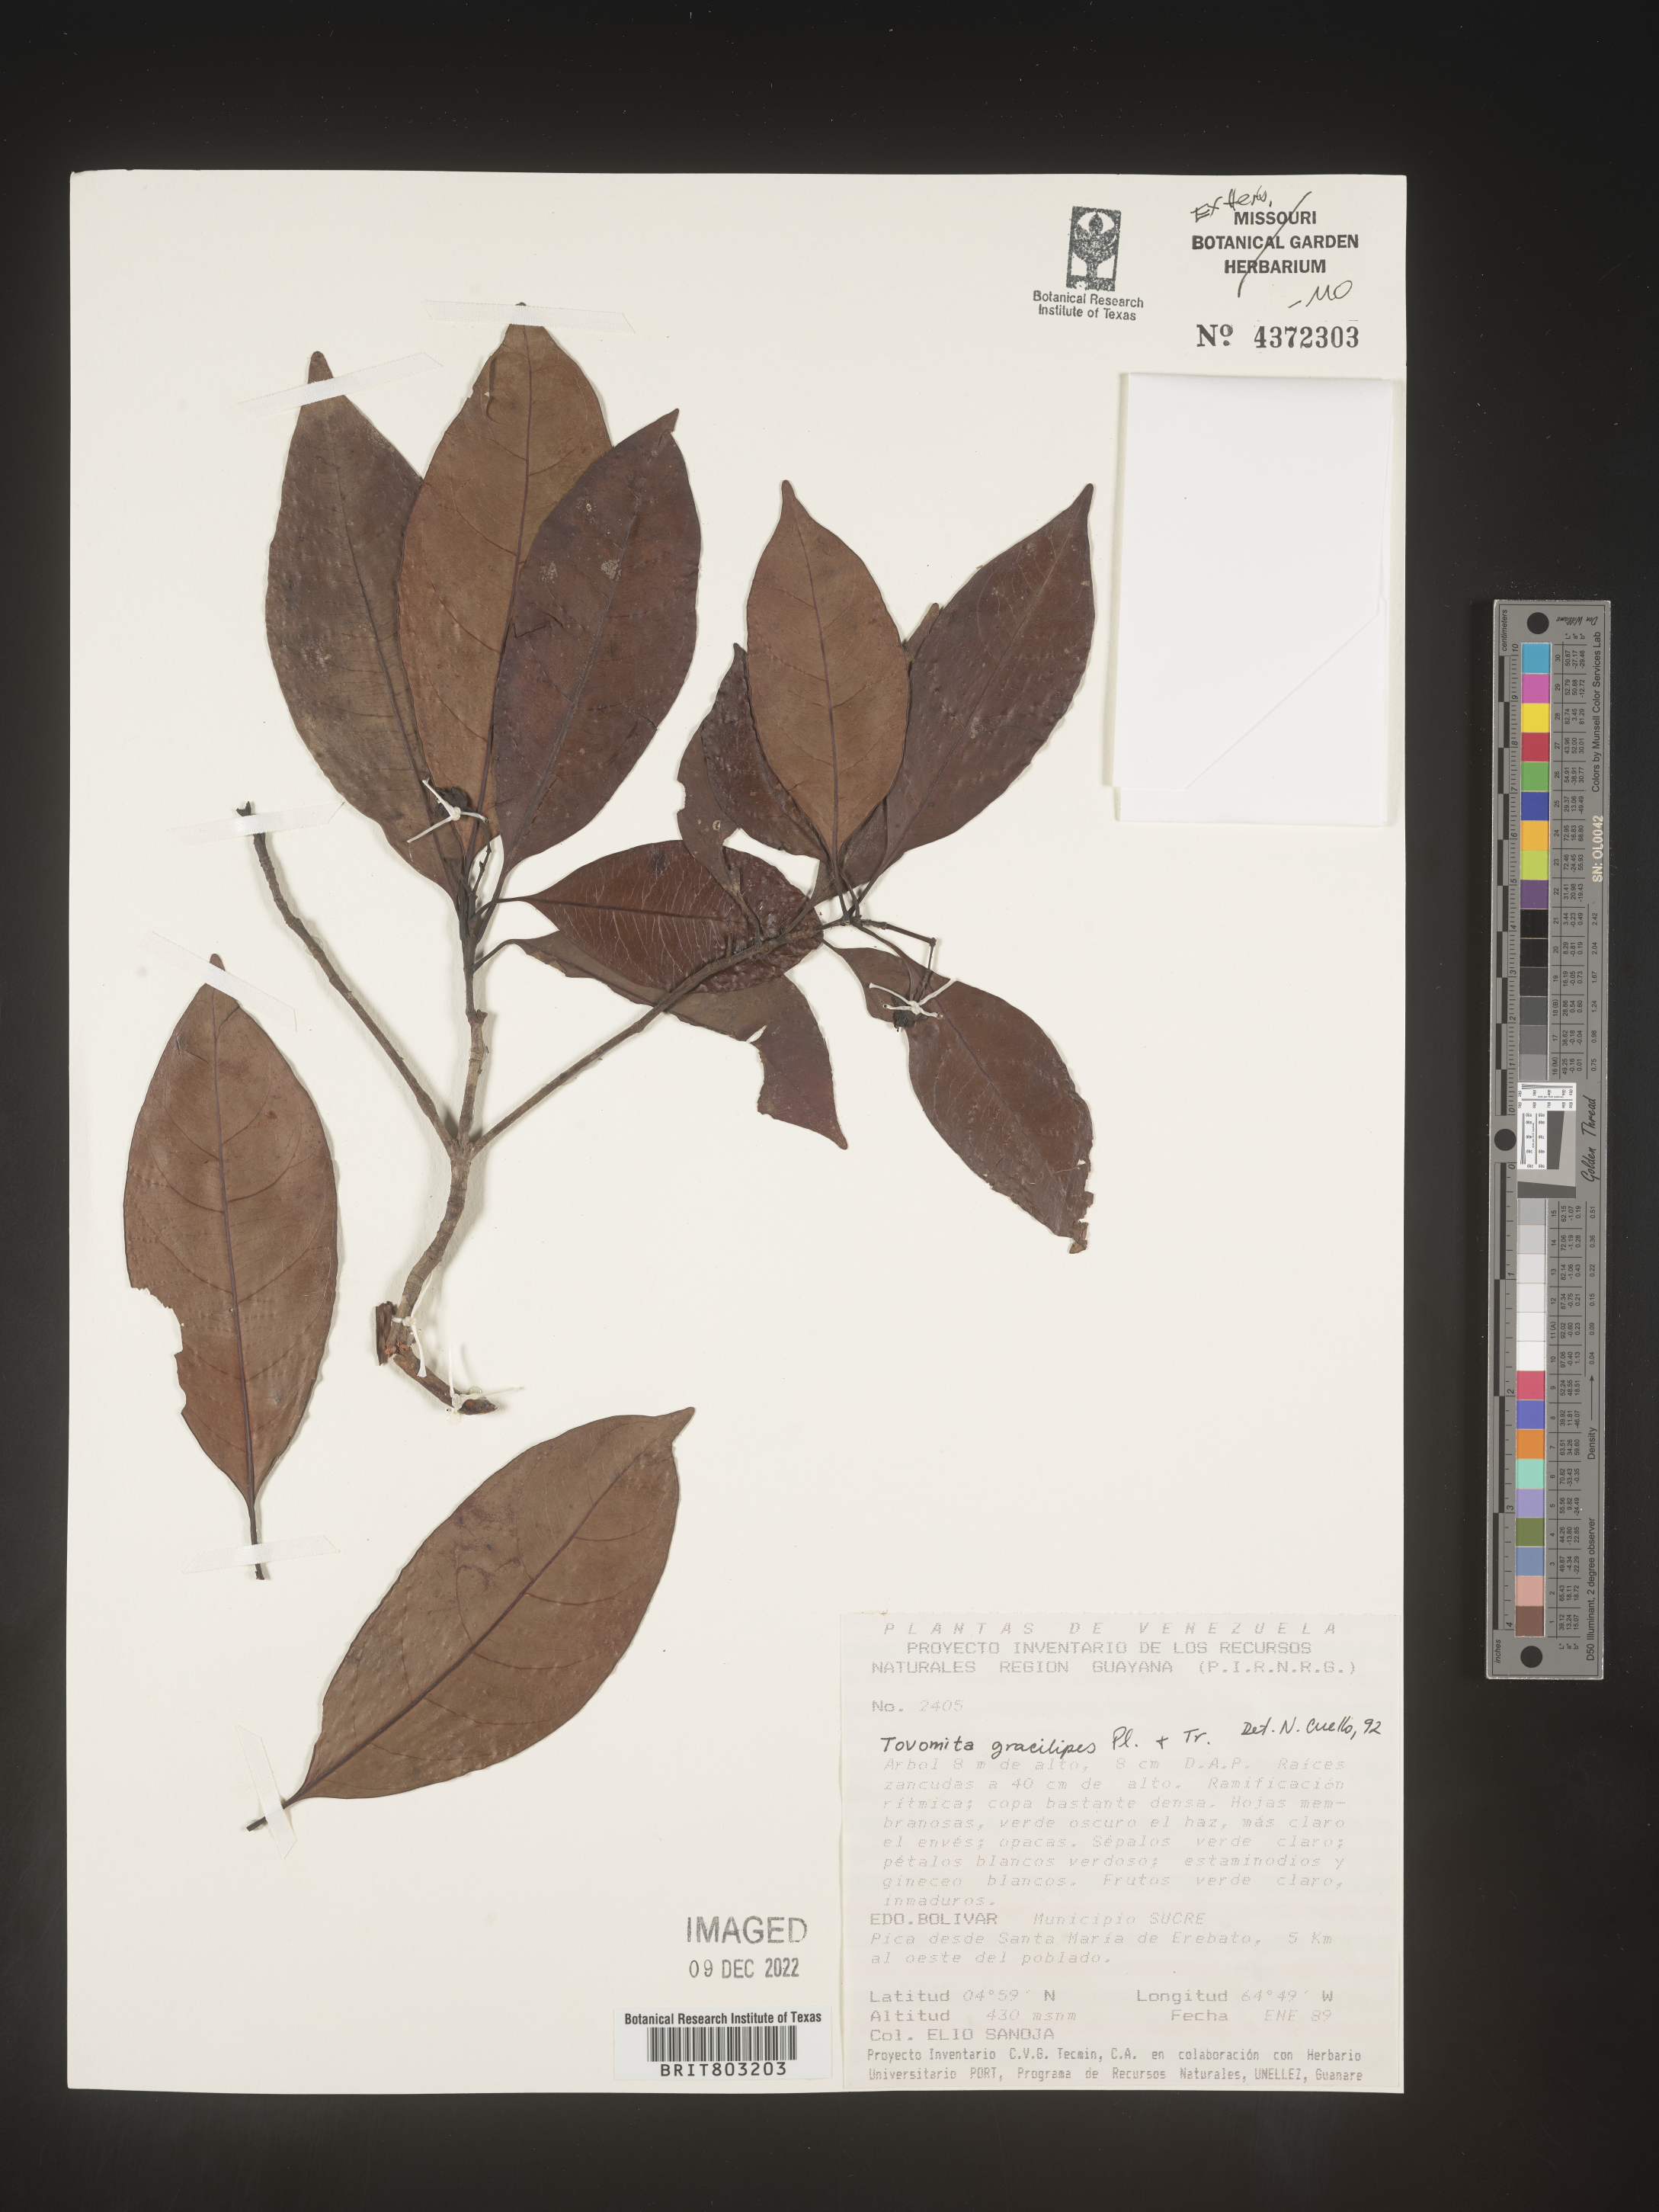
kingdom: Plantae
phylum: Tracheophyta
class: Magnoliopsida
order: Malpighiales
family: Clusiaceae
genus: Tovomita
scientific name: Tovomita
